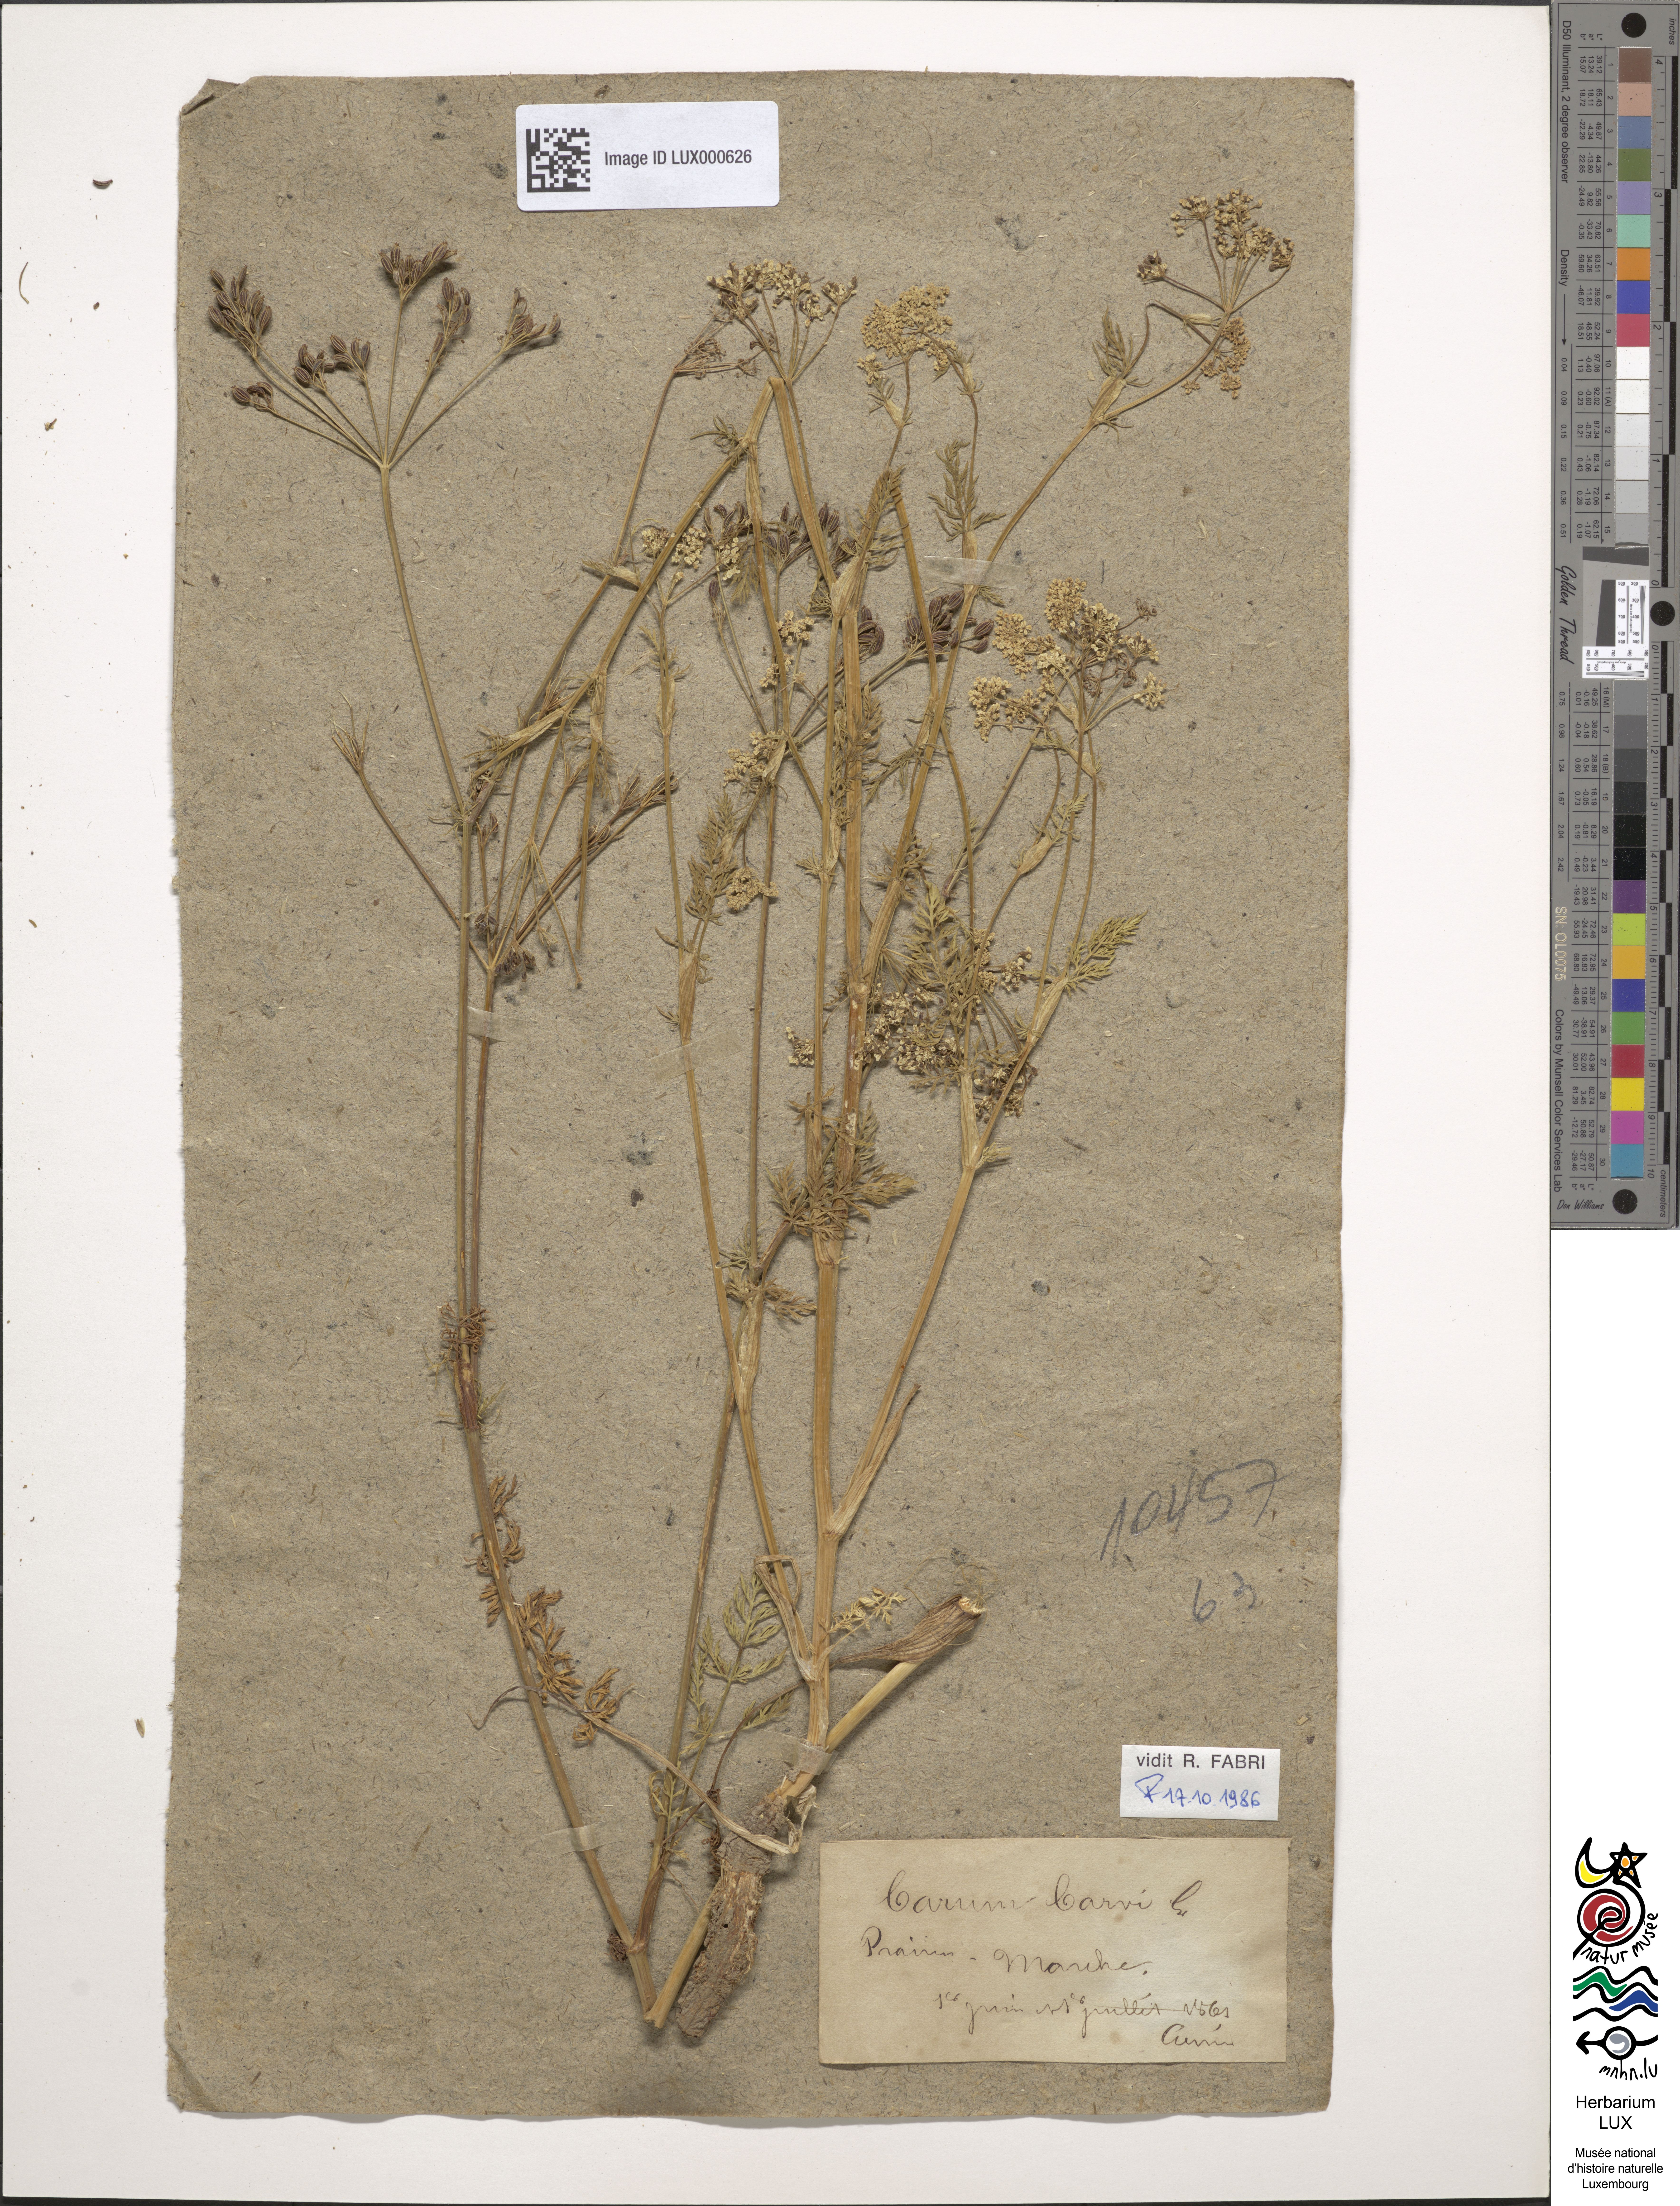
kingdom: Plantae
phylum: Tracheophyta
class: Magnoliopsida
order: Apiales
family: Apiaceae
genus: Carum
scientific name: Carum carvi
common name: Caraway
